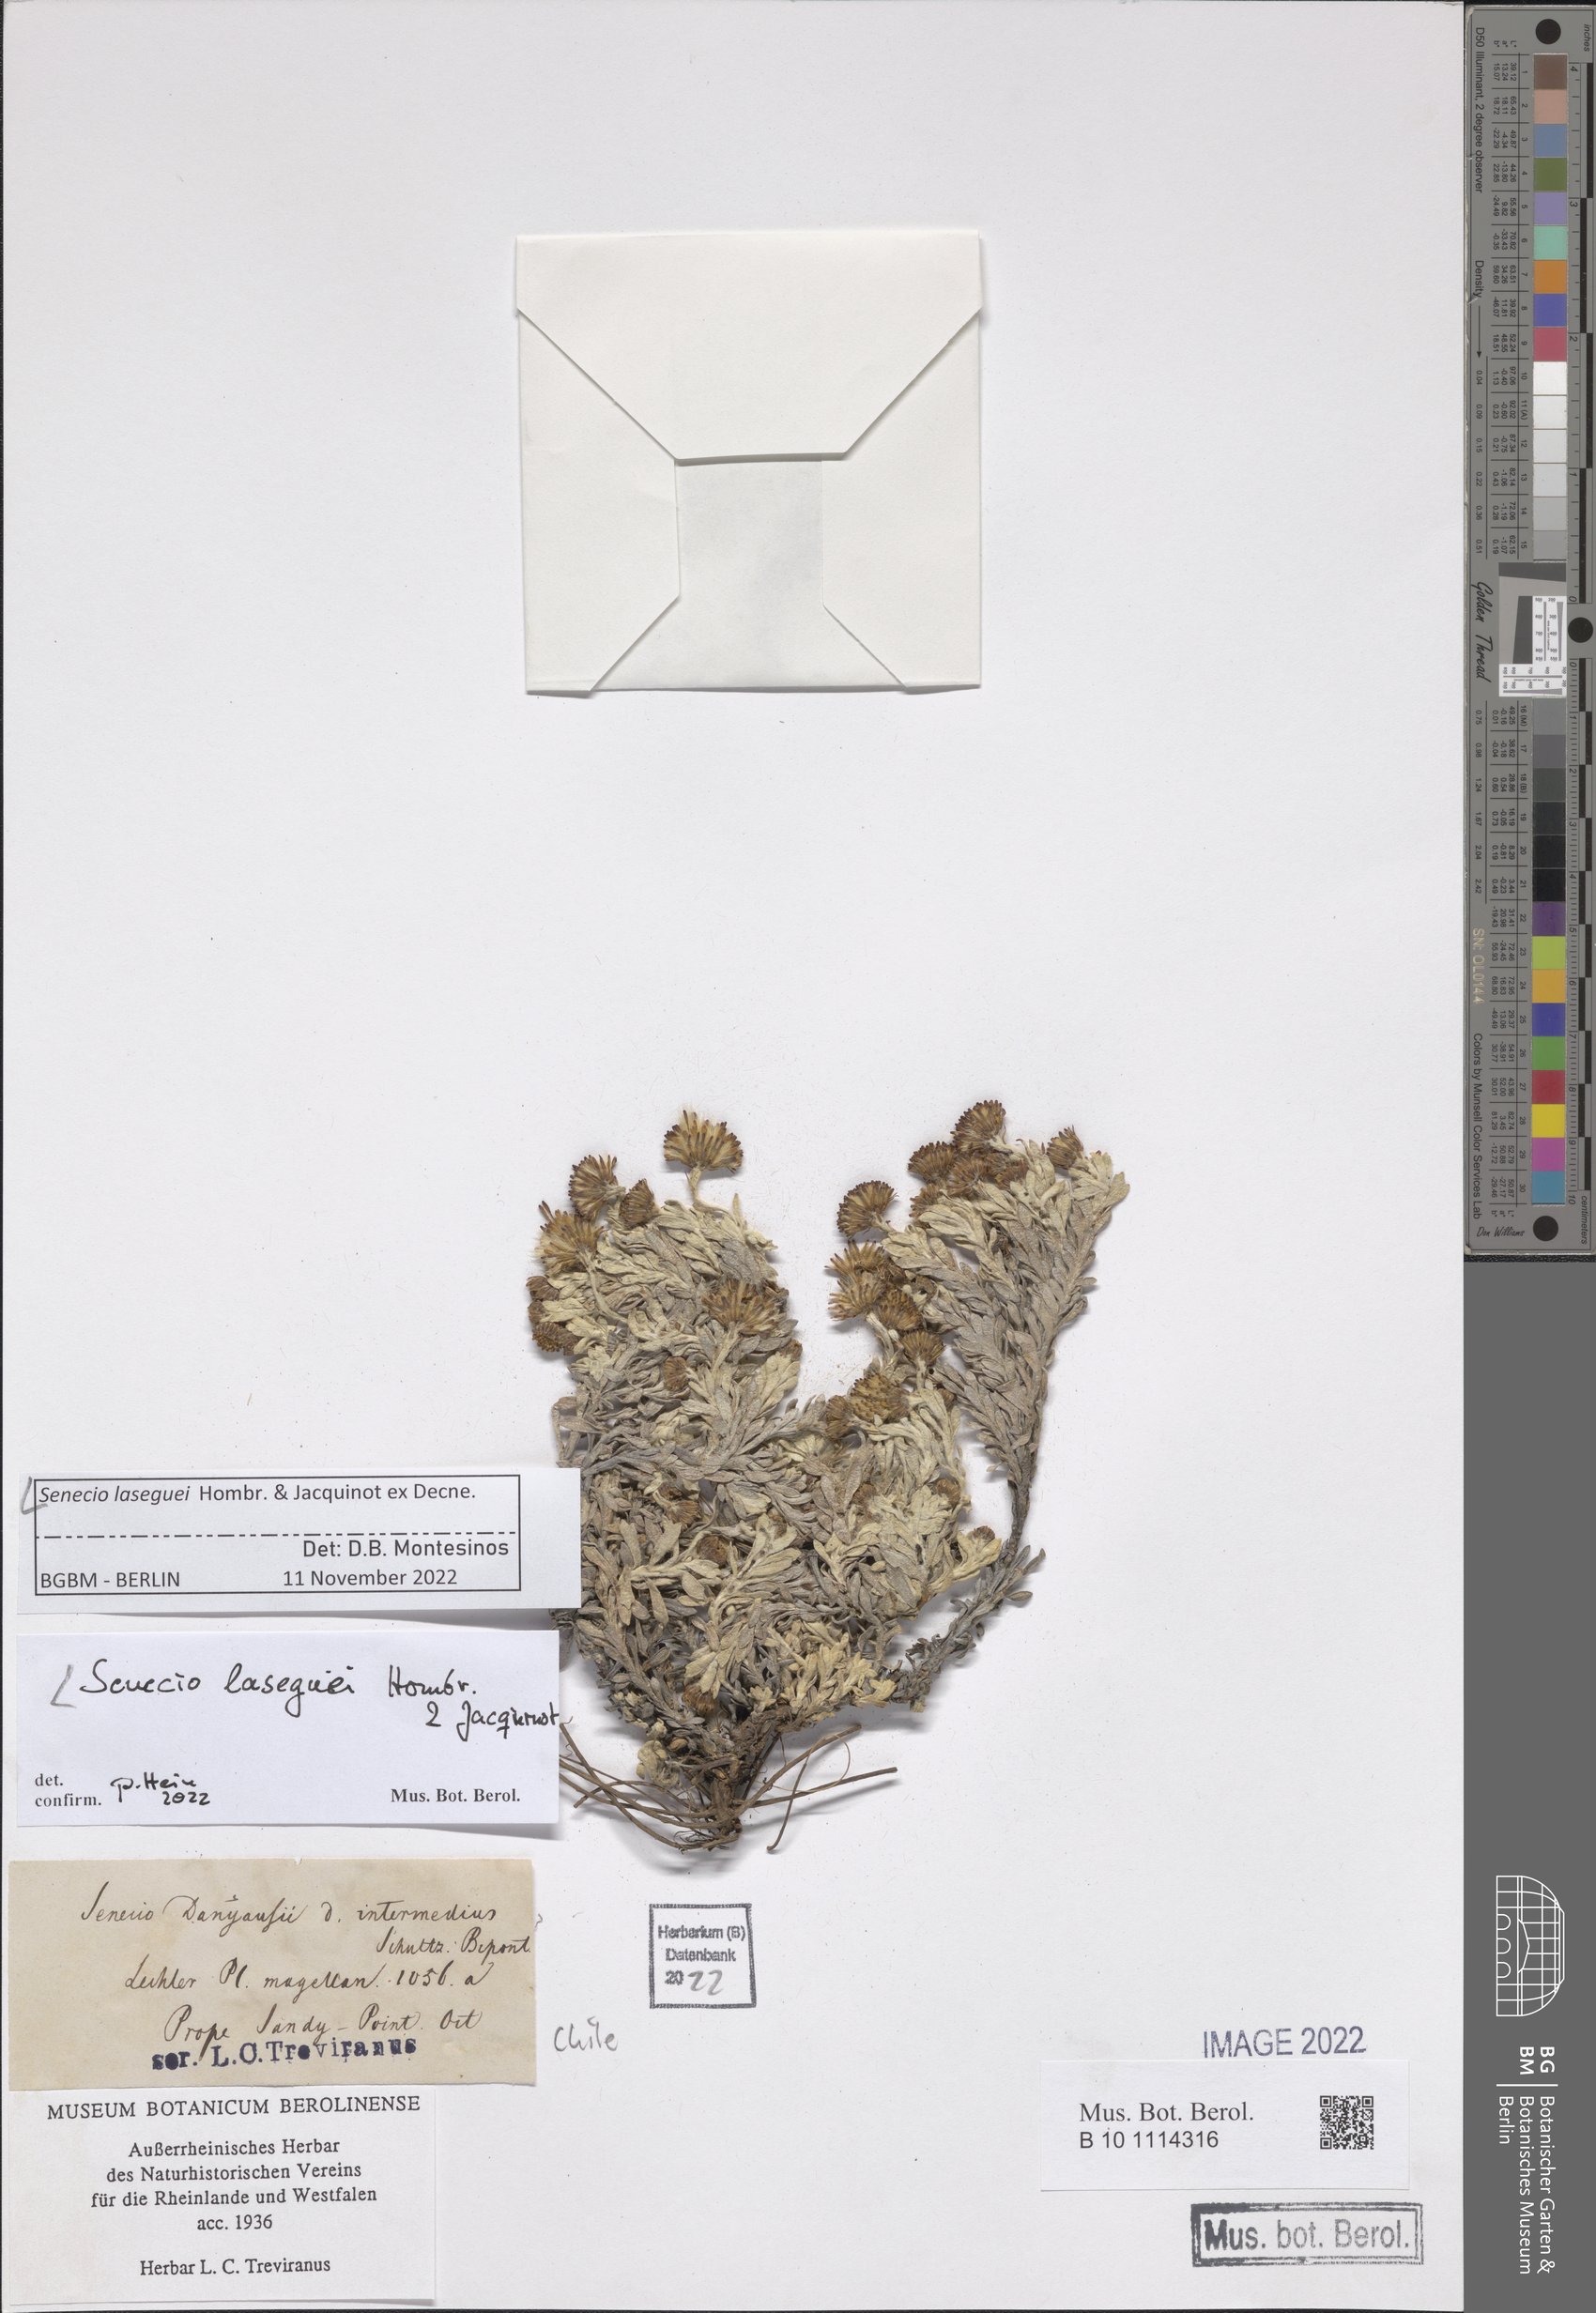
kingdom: Plantae
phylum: Tracheophyta
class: Magnoliopsida
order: Asterales
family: Asteraceae
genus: Senecio
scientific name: Senecio laseguei
